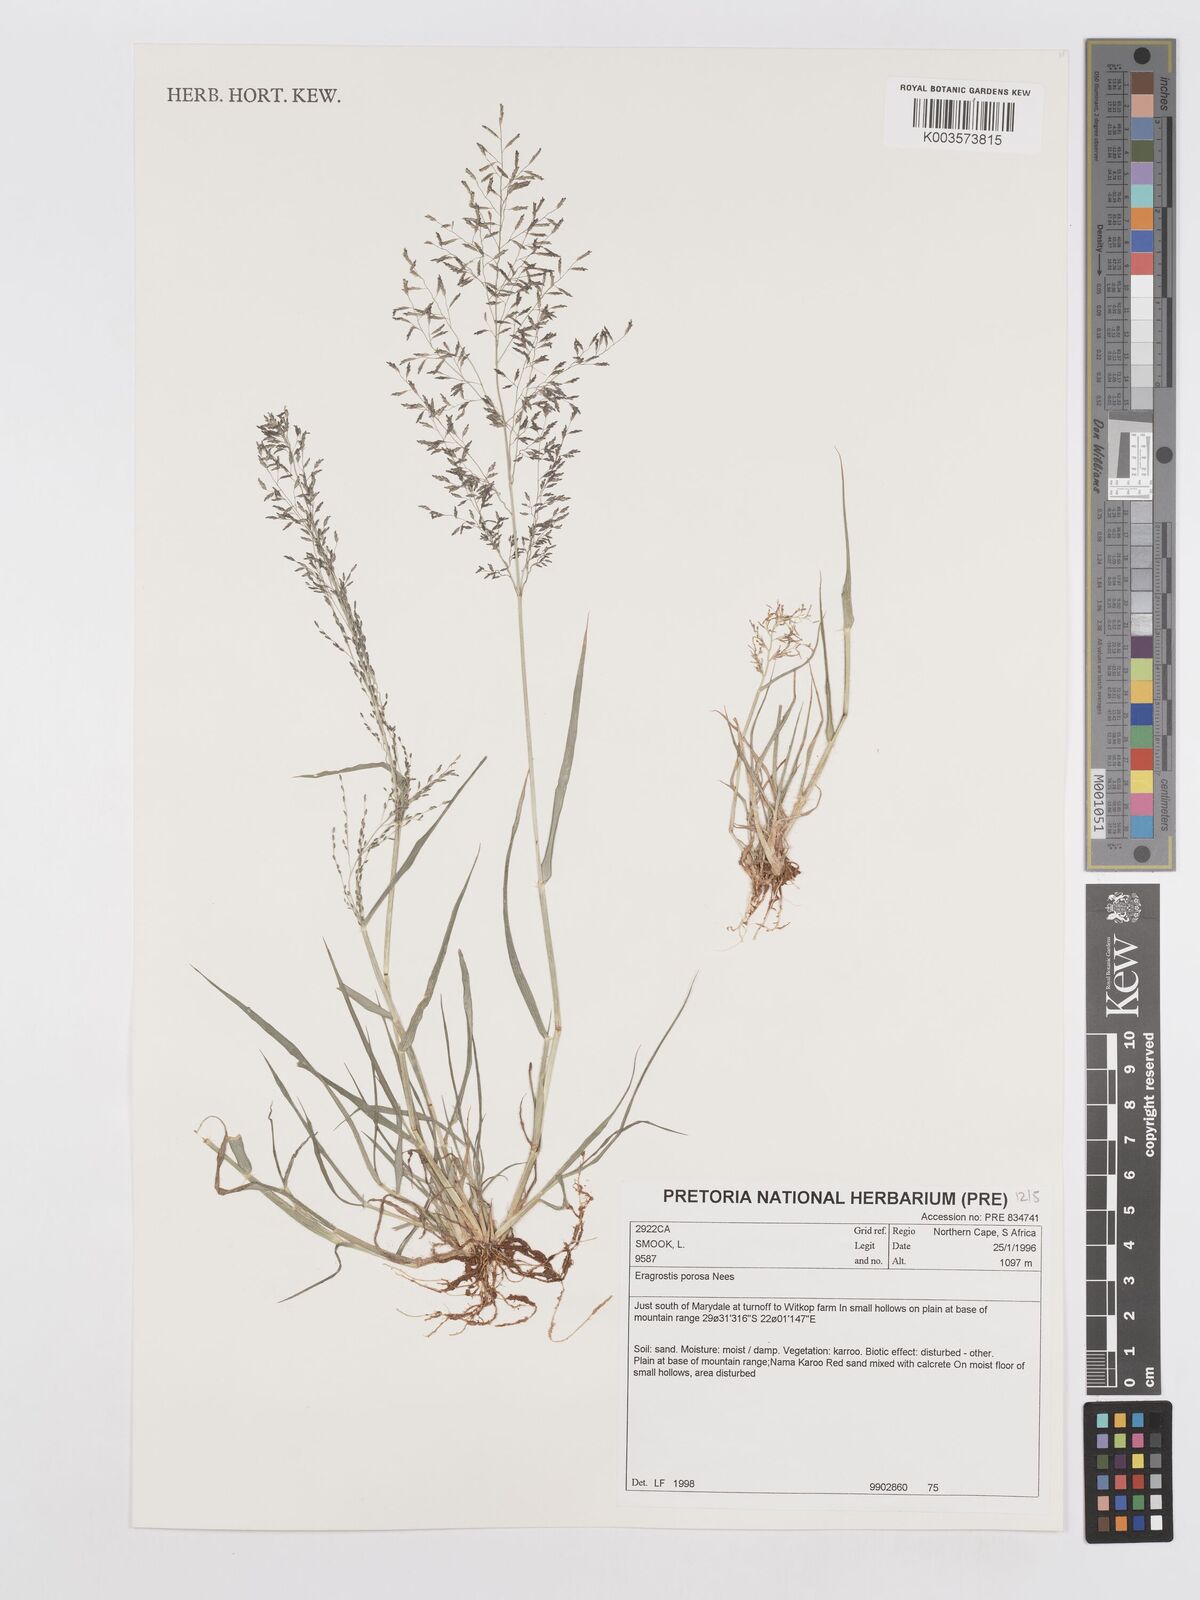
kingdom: Plantae
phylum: Tracheophyta
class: Liliopsida
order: Poales
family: Poaceae
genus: Eragrostis
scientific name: Eragrostis porosa
